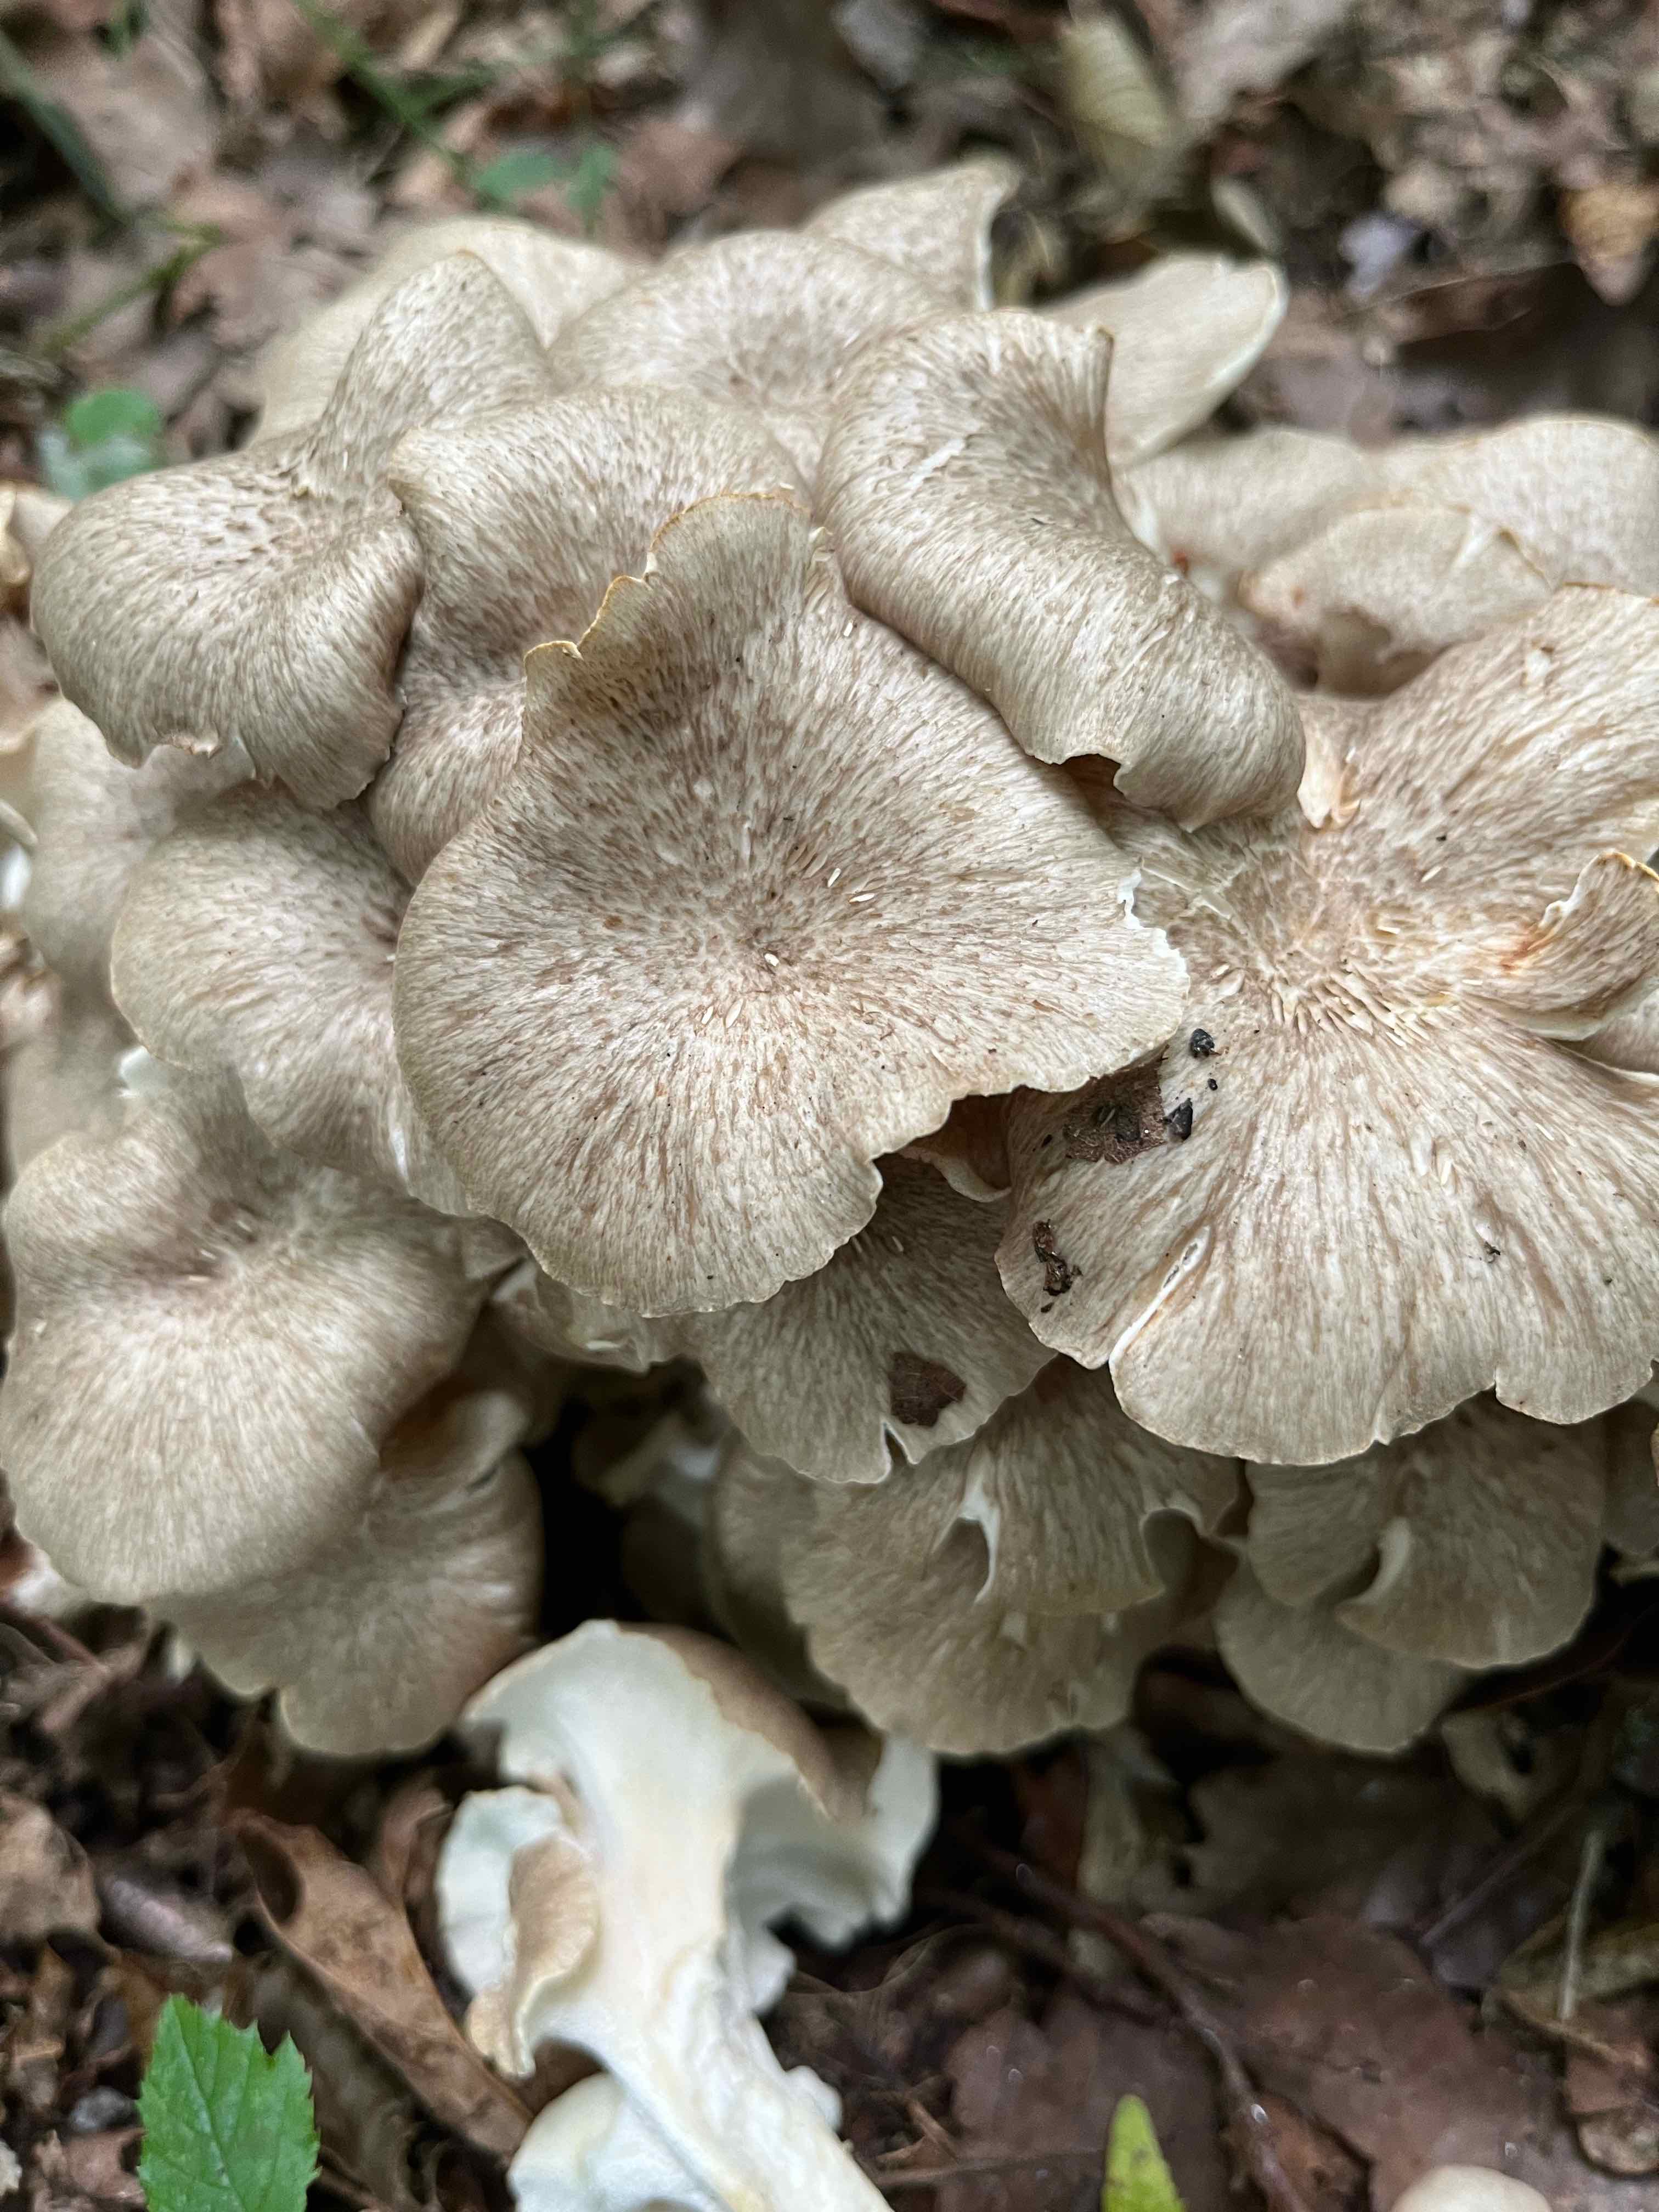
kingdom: Fungi
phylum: Basidiomycota
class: Agaricomycetes
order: Polyporales
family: Polyporaceae
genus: Polyporus
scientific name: Polyporus umbellatus
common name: skærmformet stilkporesvamp
